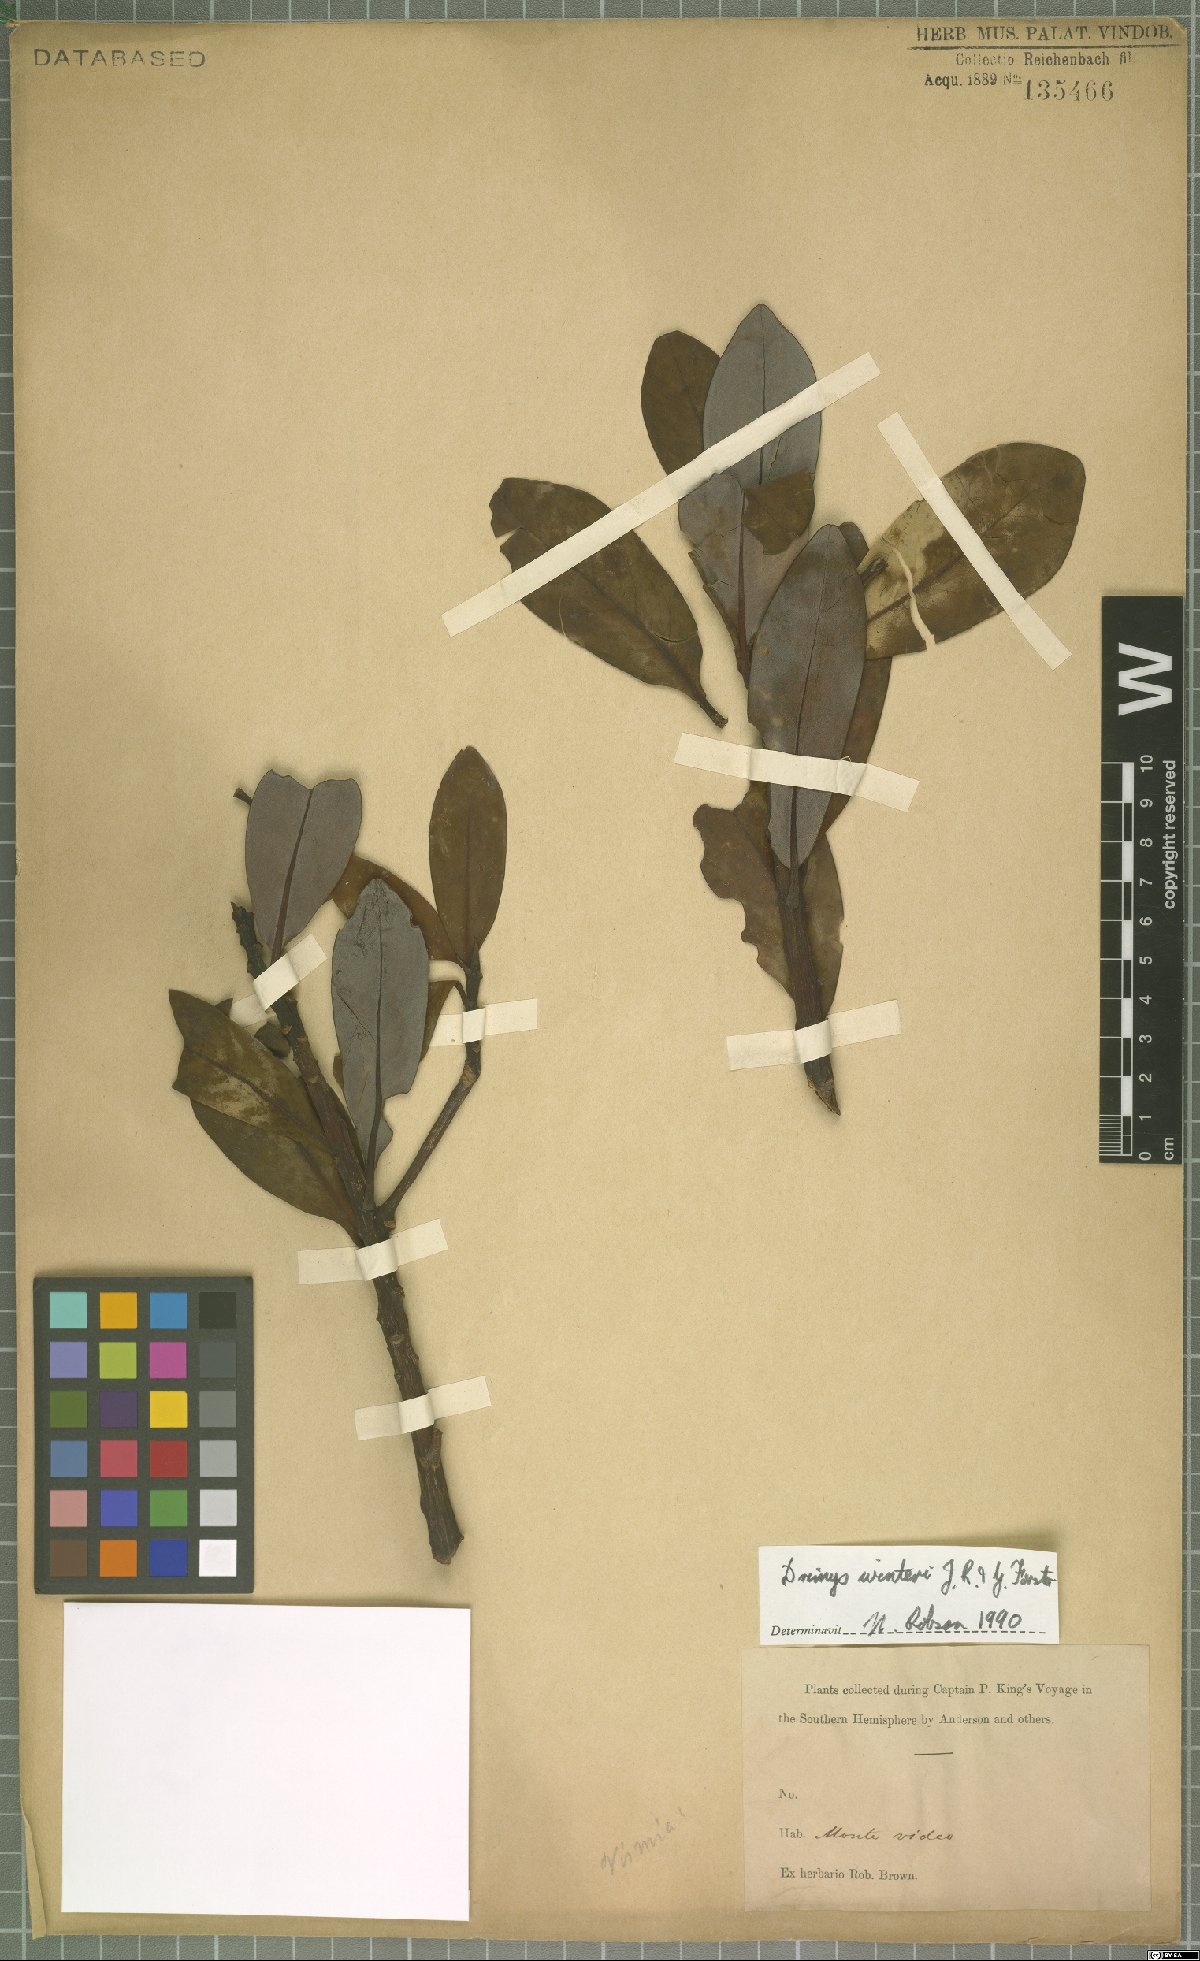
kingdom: Plantae
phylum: Tracheophyta
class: Magnoliopsida
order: Canellales
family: Winteraceae
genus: Drimys
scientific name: Drimys winteri
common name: Winter's-bark
